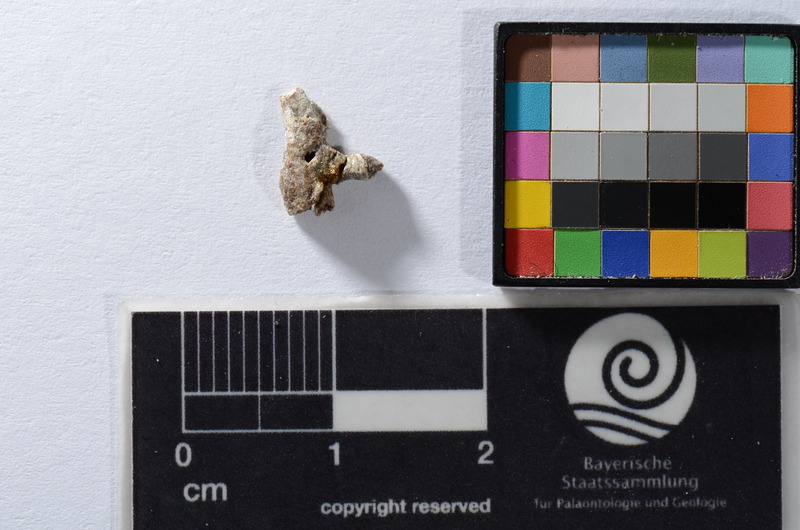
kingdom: Animalia
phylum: Chordata
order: Cypriniformes
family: Cyprinidae
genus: Leuciscus
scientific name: Leuciscus
